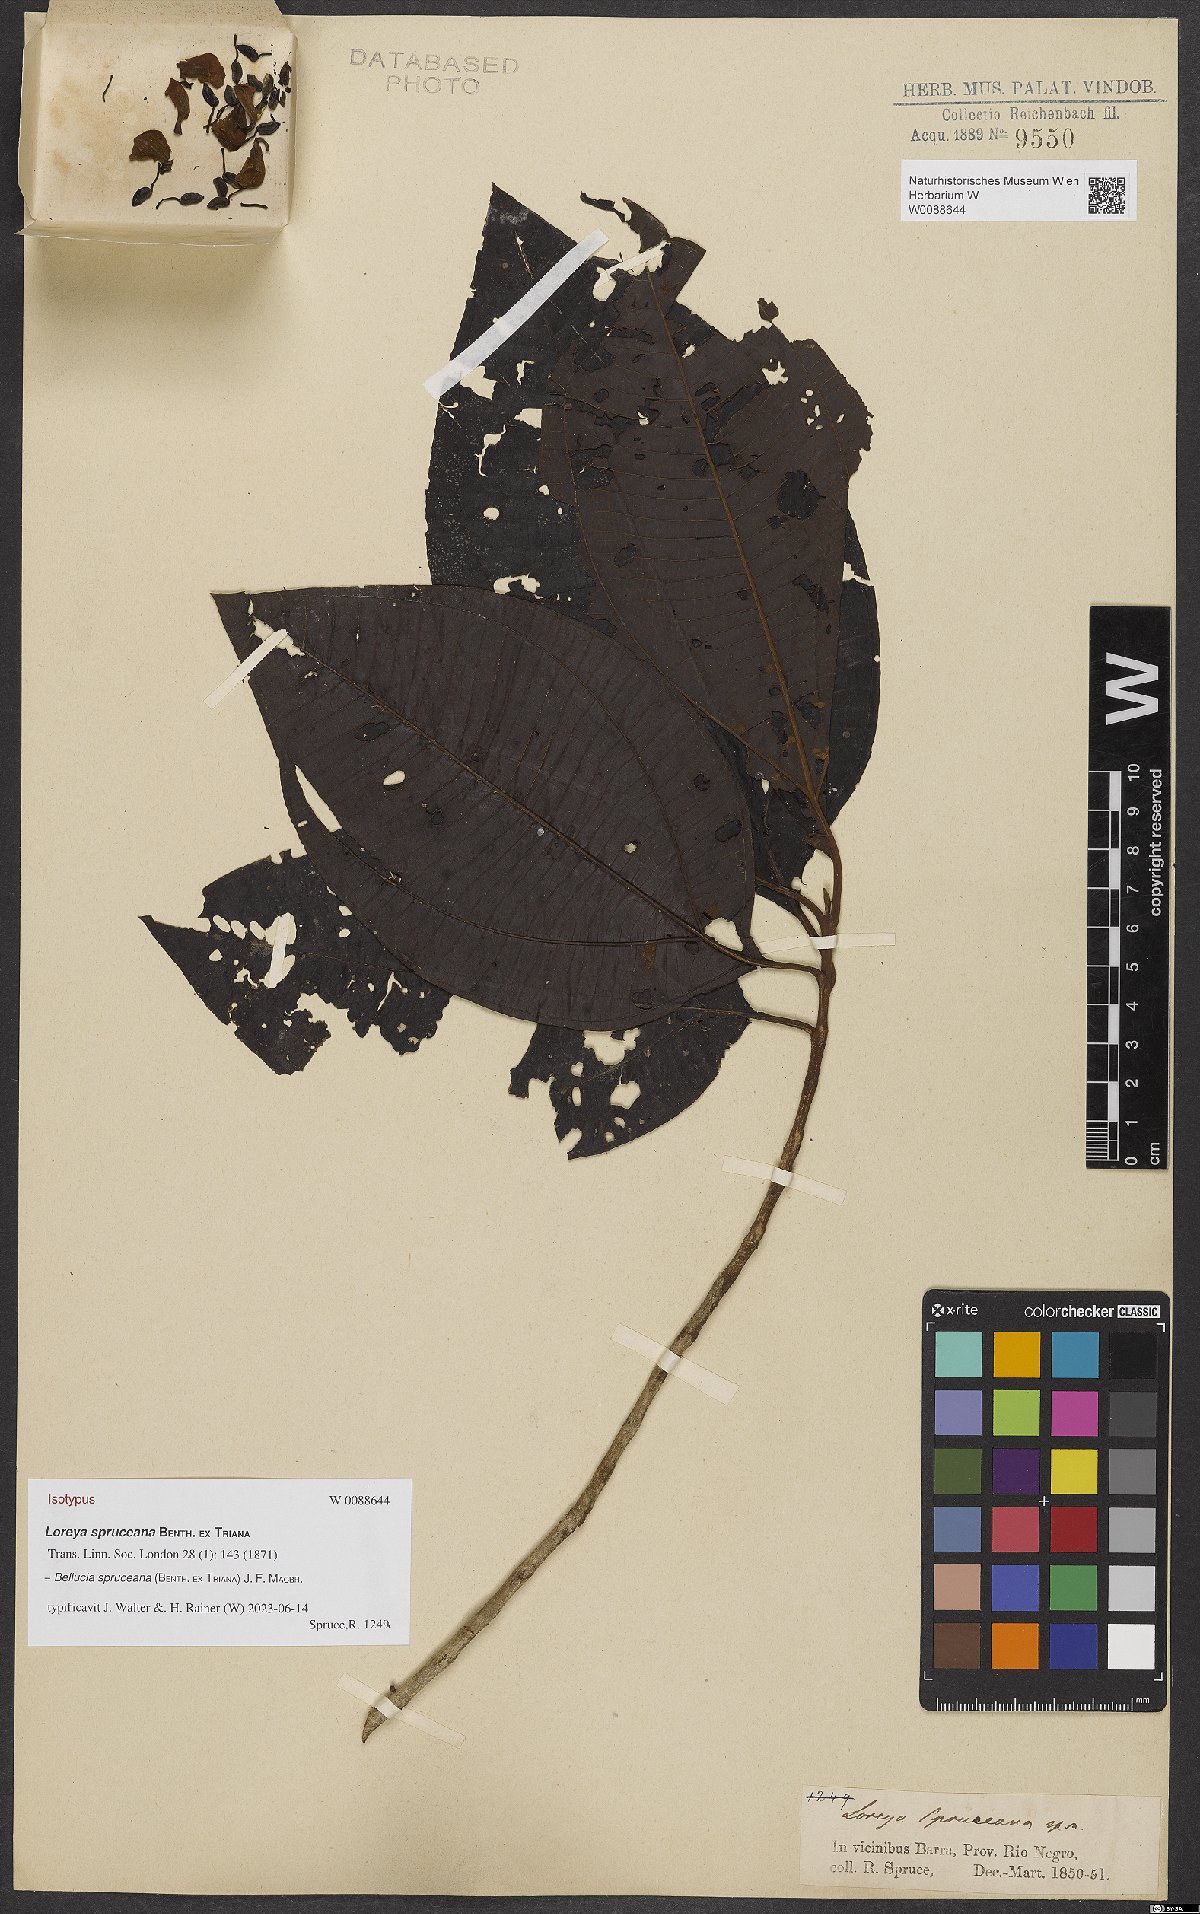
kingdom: Plantae
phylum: Tracheophyta
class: Magnoliopsida
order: Myrtales
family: Melastomataceae
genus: Bellucia
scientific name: Bellucia spruceana
